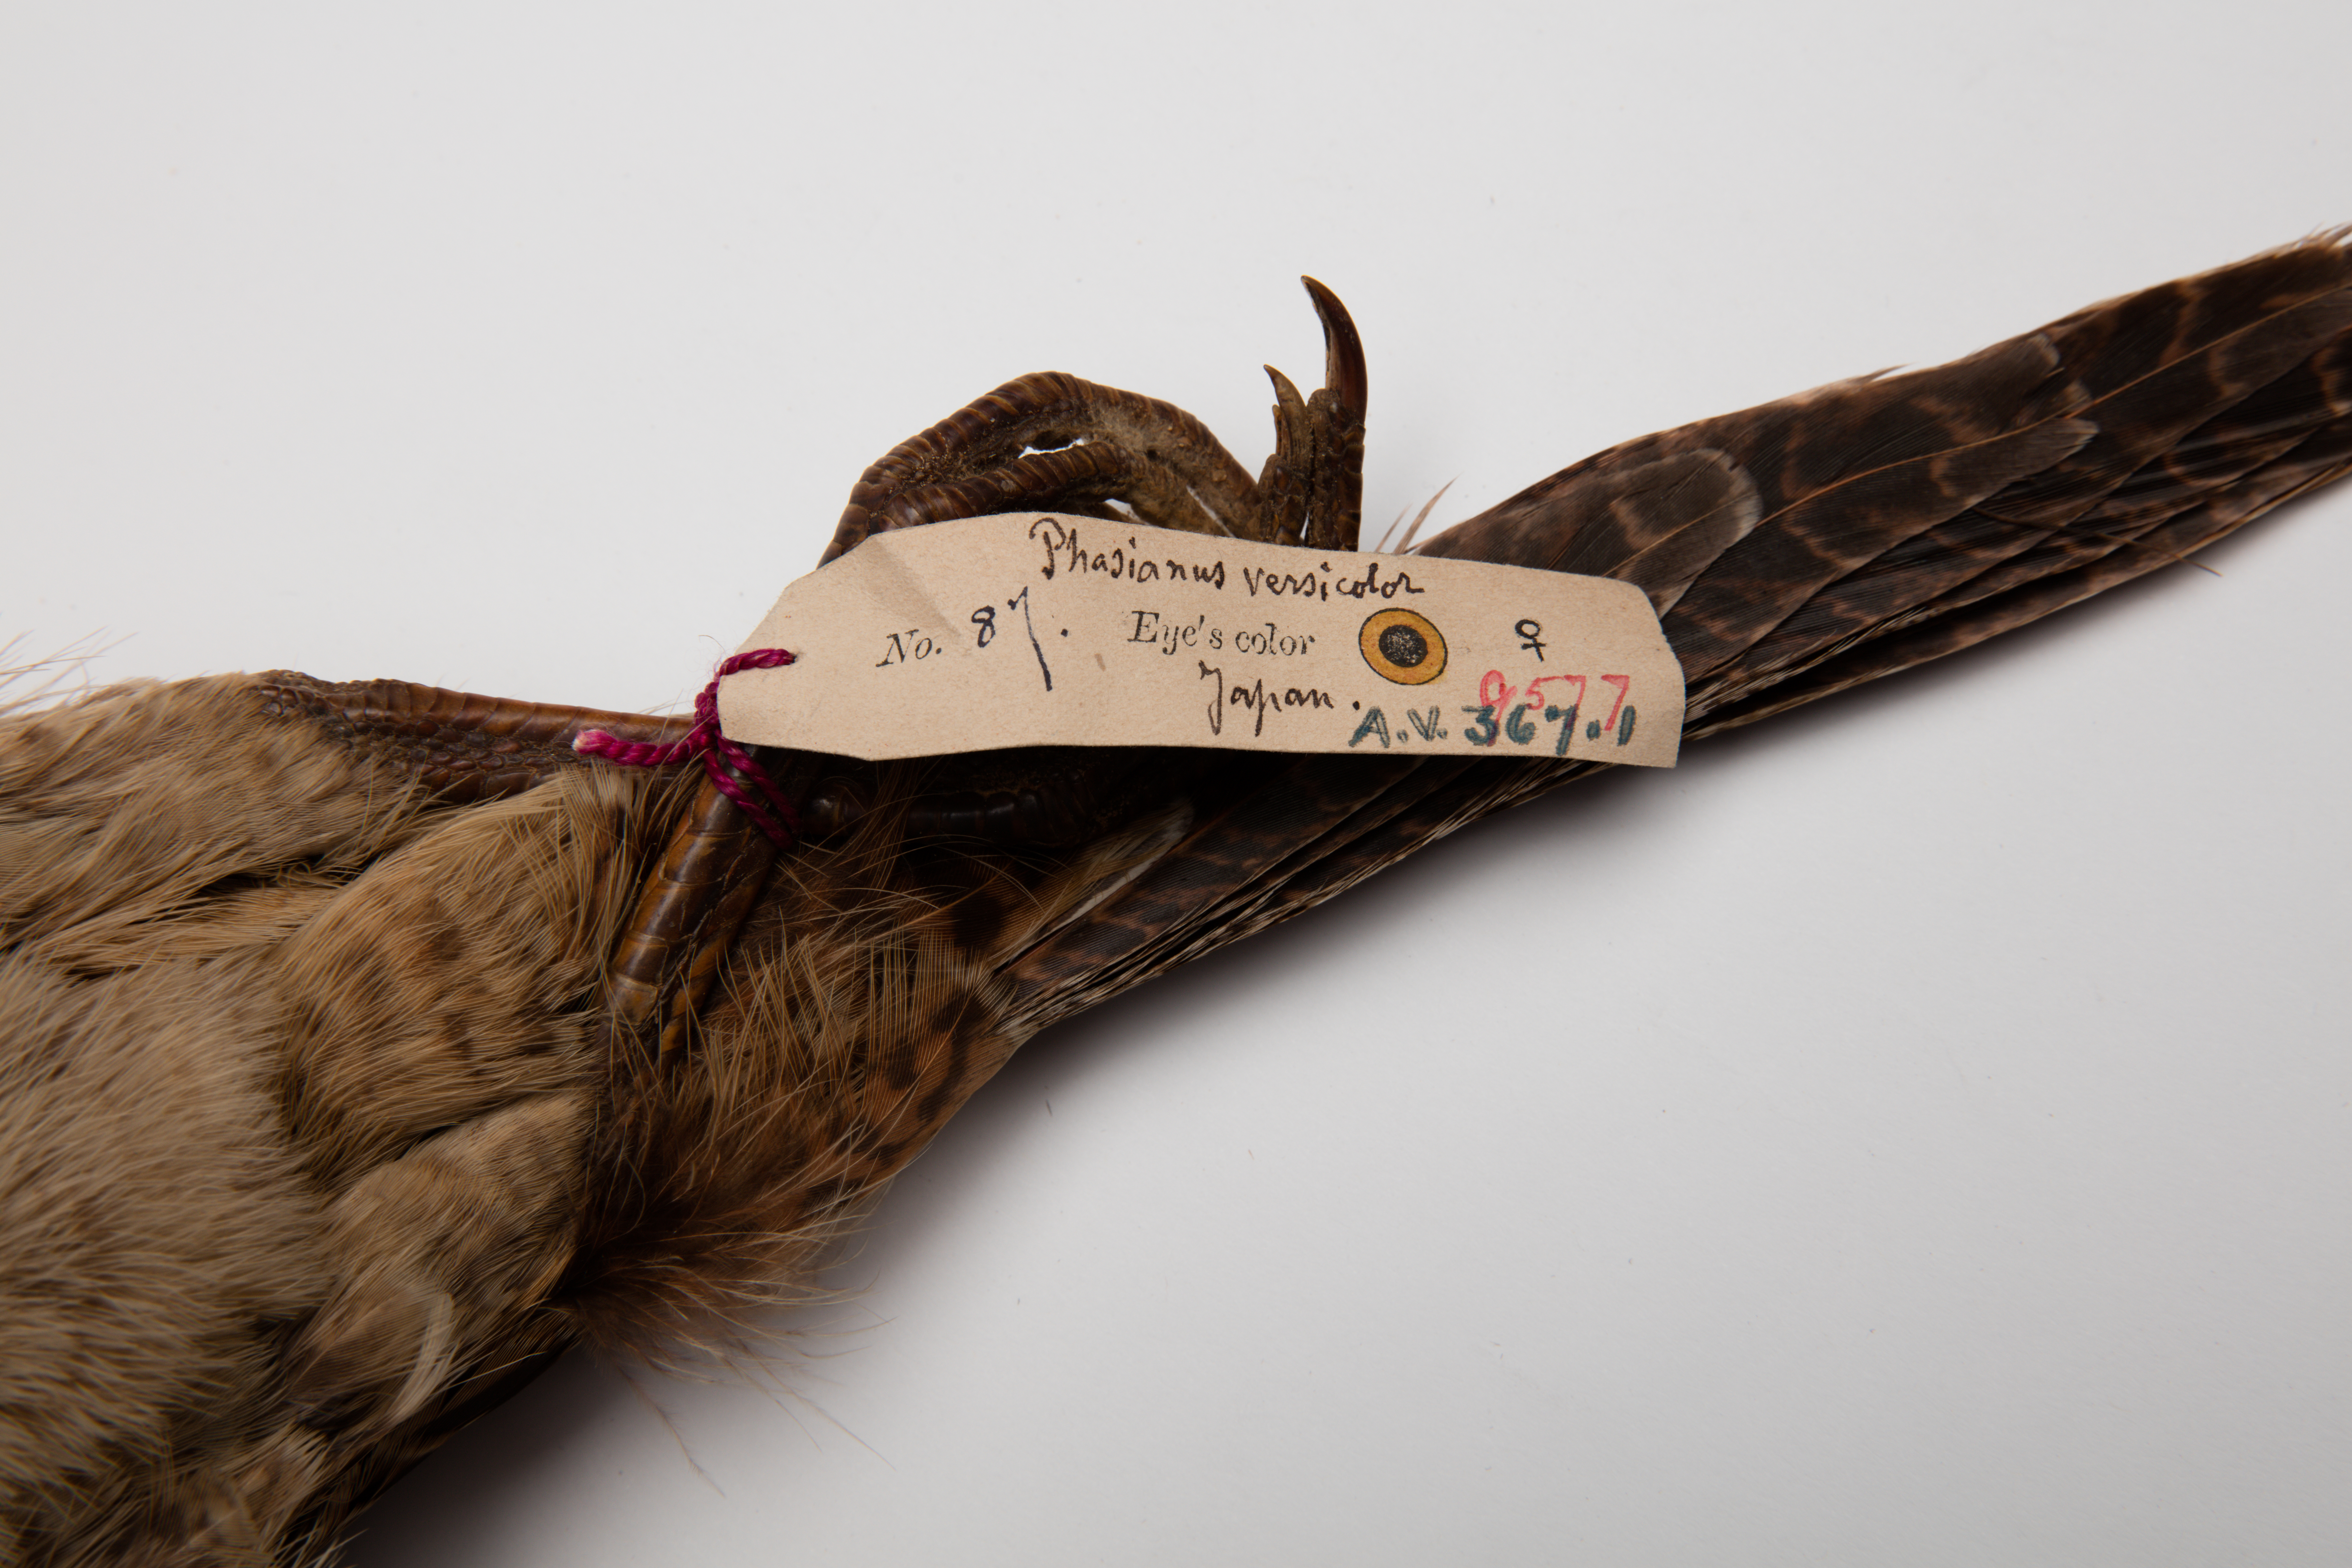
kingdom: Animalia
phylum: Chordata
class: Aves
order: Galliformes
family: Phasianidae
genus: Phasianus
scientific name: Phasianus versicolor
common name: Green pheasant
